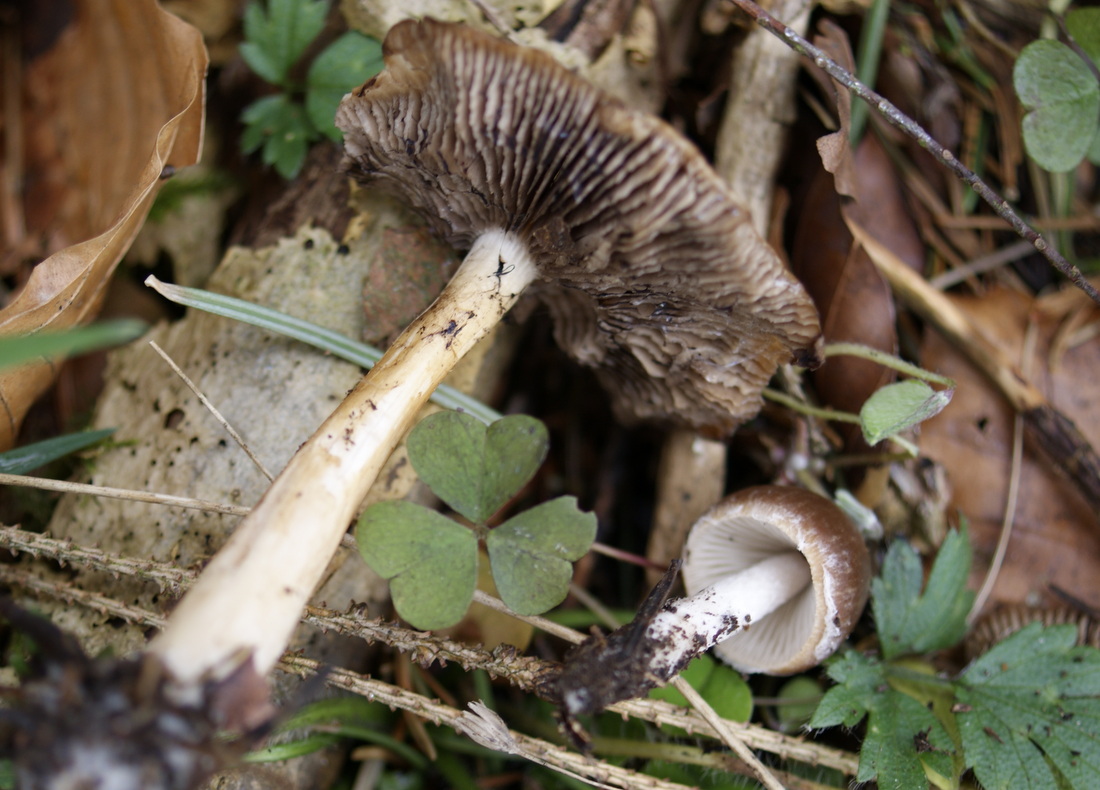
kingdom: Fungi
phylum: Basidiomycota
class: Agaricomycetes
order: Agaricales
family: Psathyrellaceae
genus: Psathyrella
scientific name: Psathyrella spadiceogrisea
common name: gråbrun mørkhat
